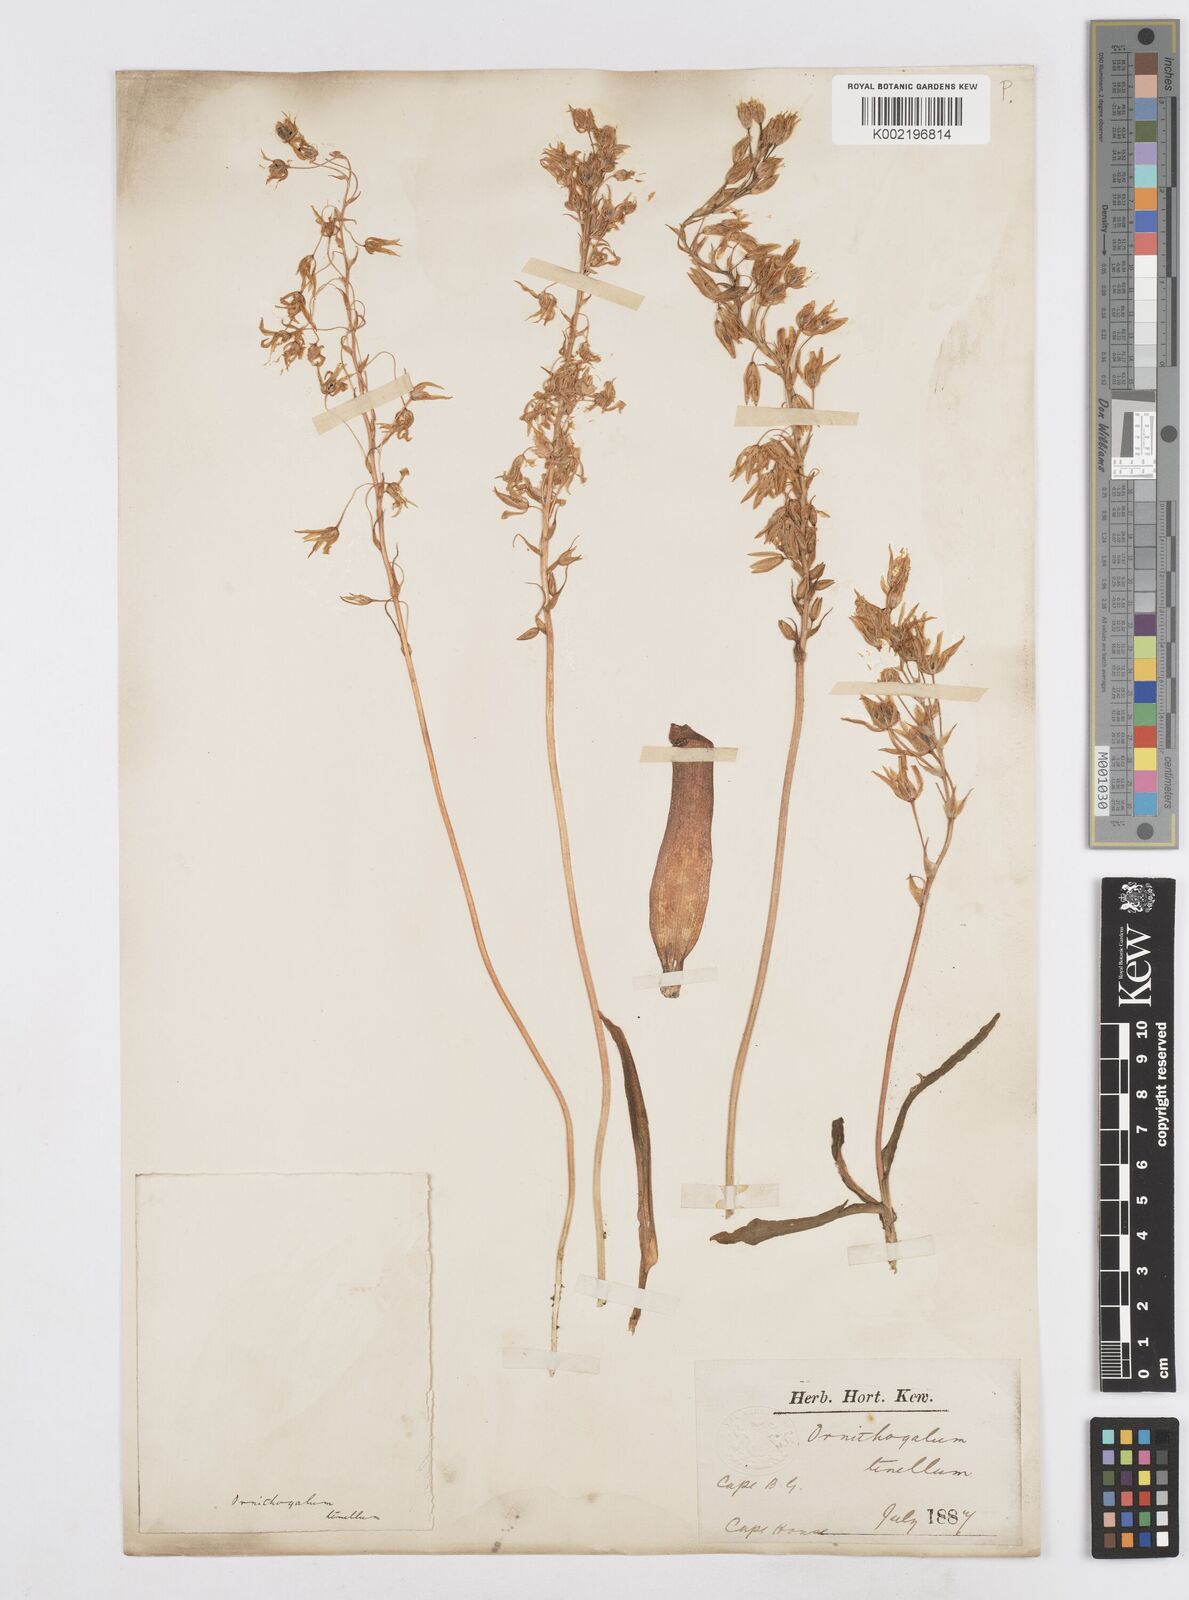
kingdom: Plantae
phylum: Tracheophyta
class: Liliopsida
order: Asparagales
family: Asparagaceae
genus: Ornithogalum
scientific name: Ornithogalum pilosum
